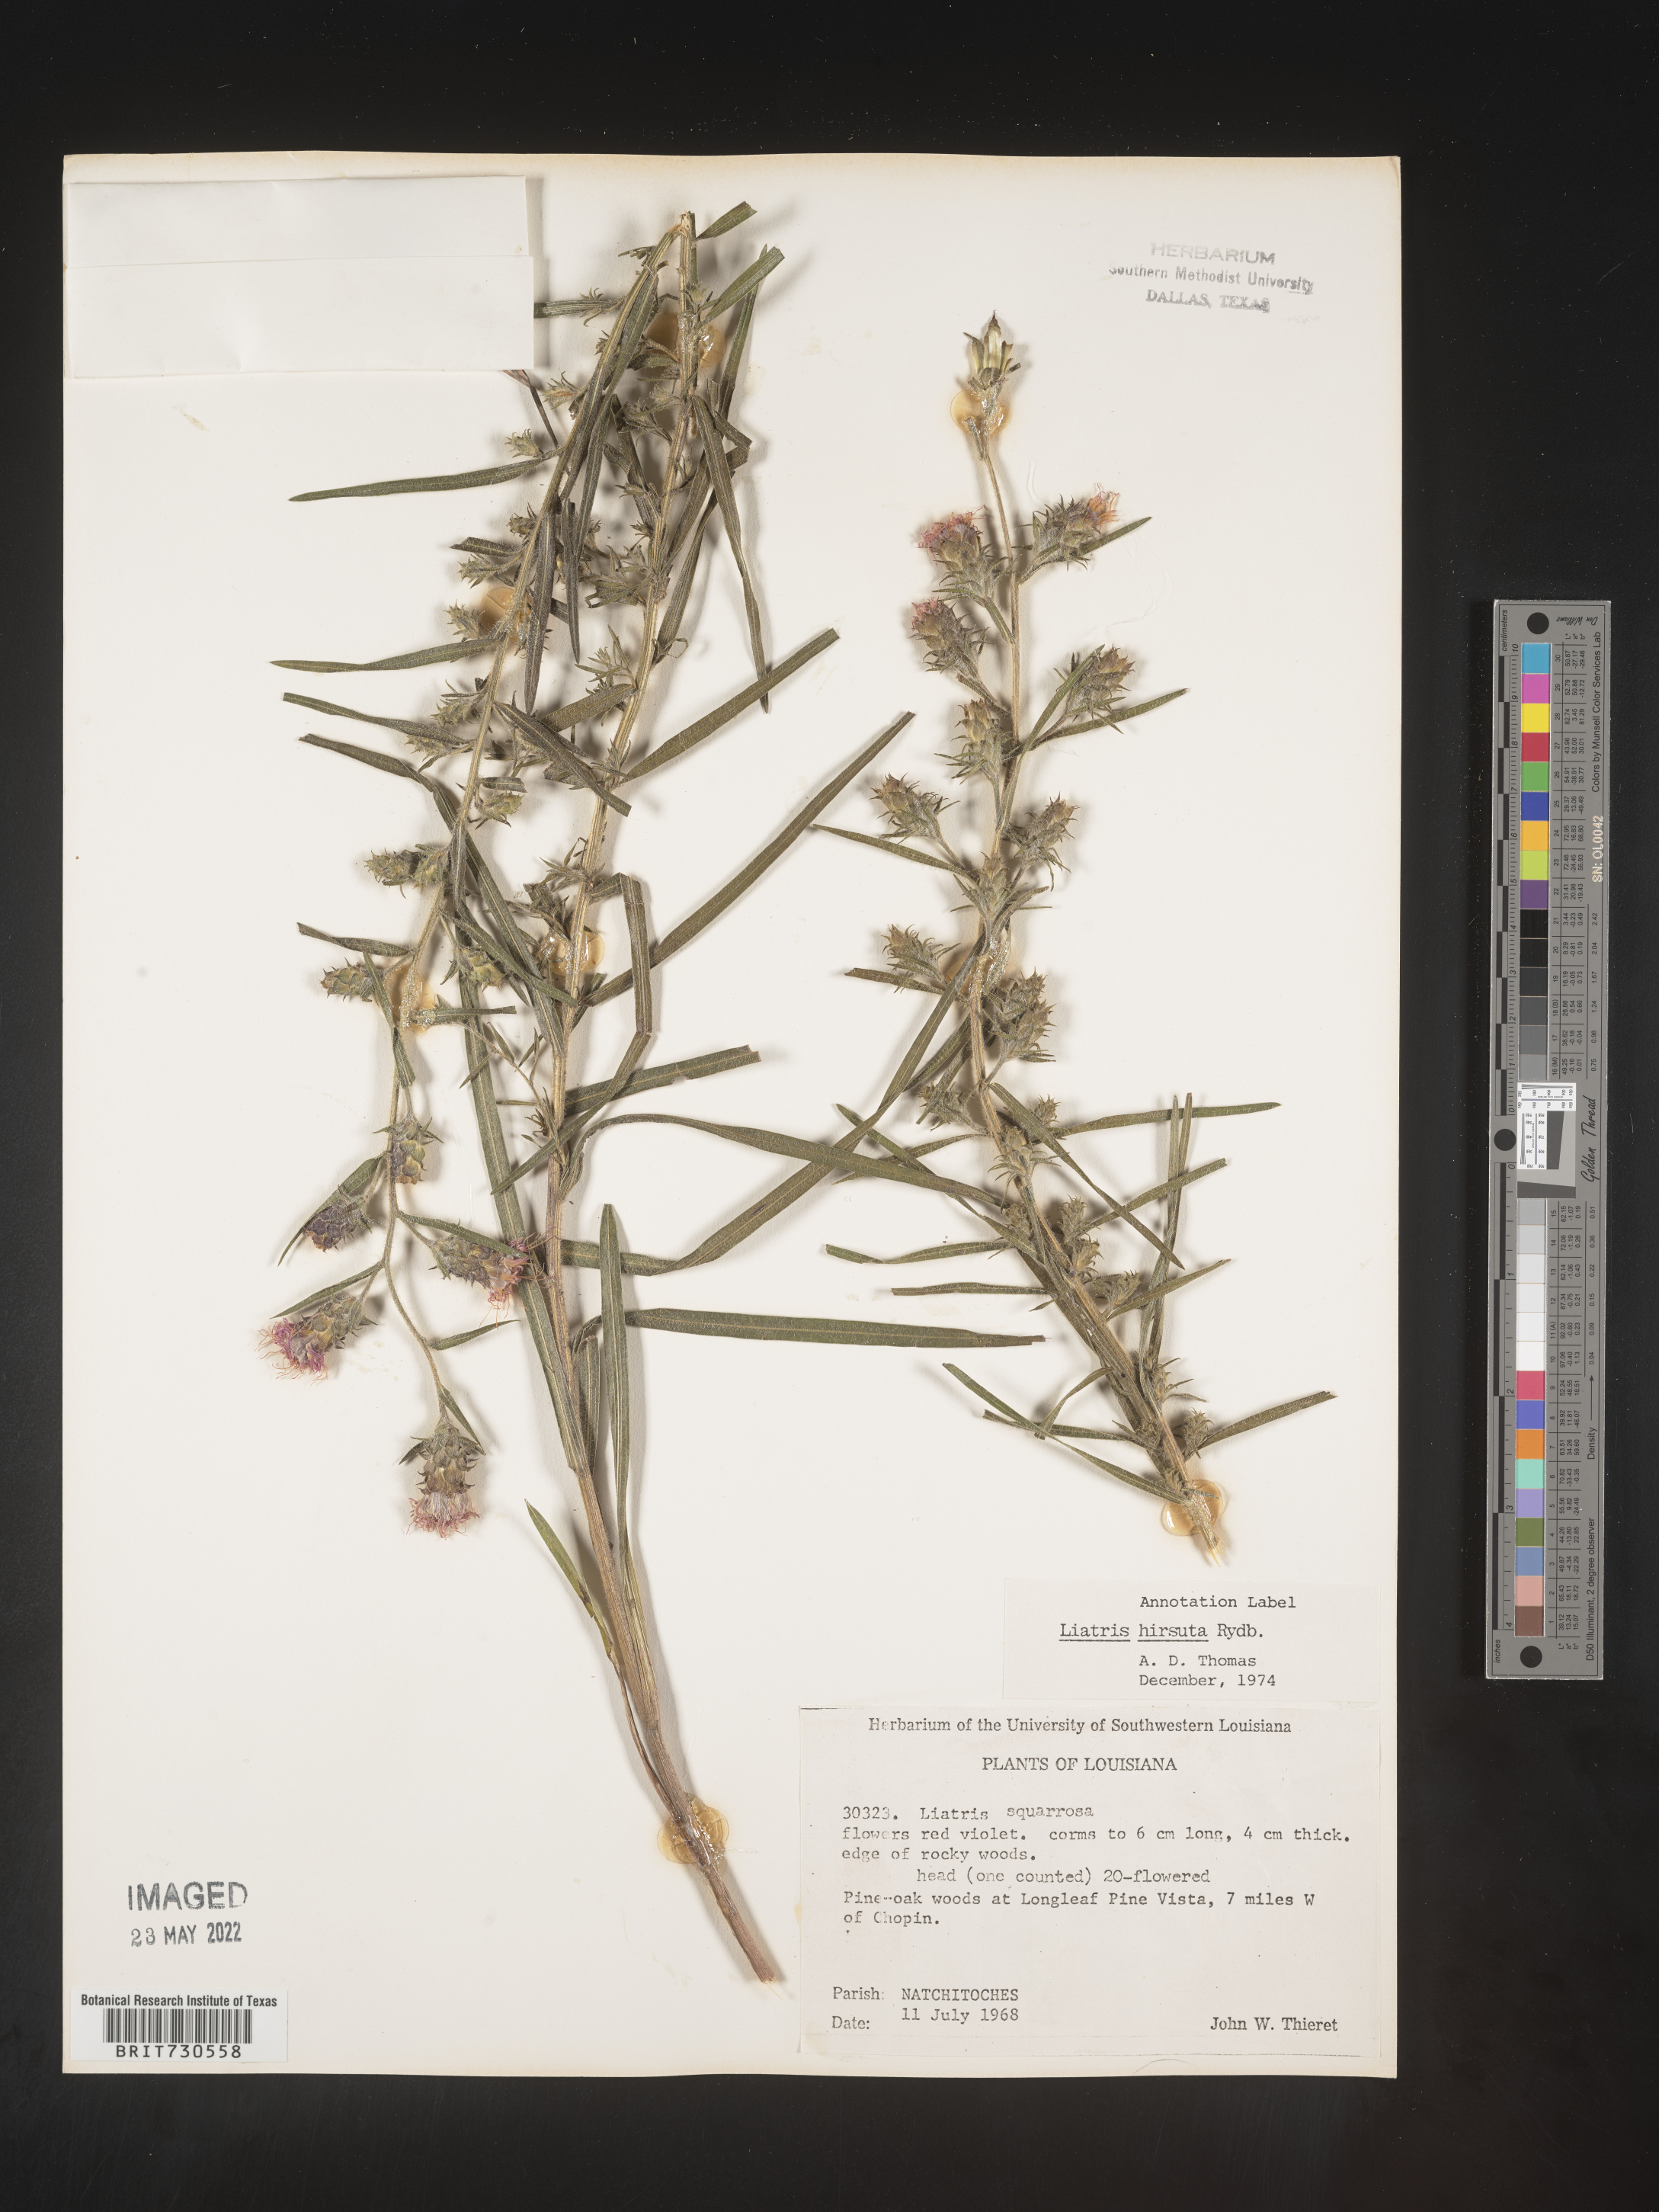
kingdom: Plantae
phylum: Tracheophyta
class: Magnoliopsida
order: Asterales
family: Asteraceae
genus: Liatris
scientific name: Liatris hirsuta
